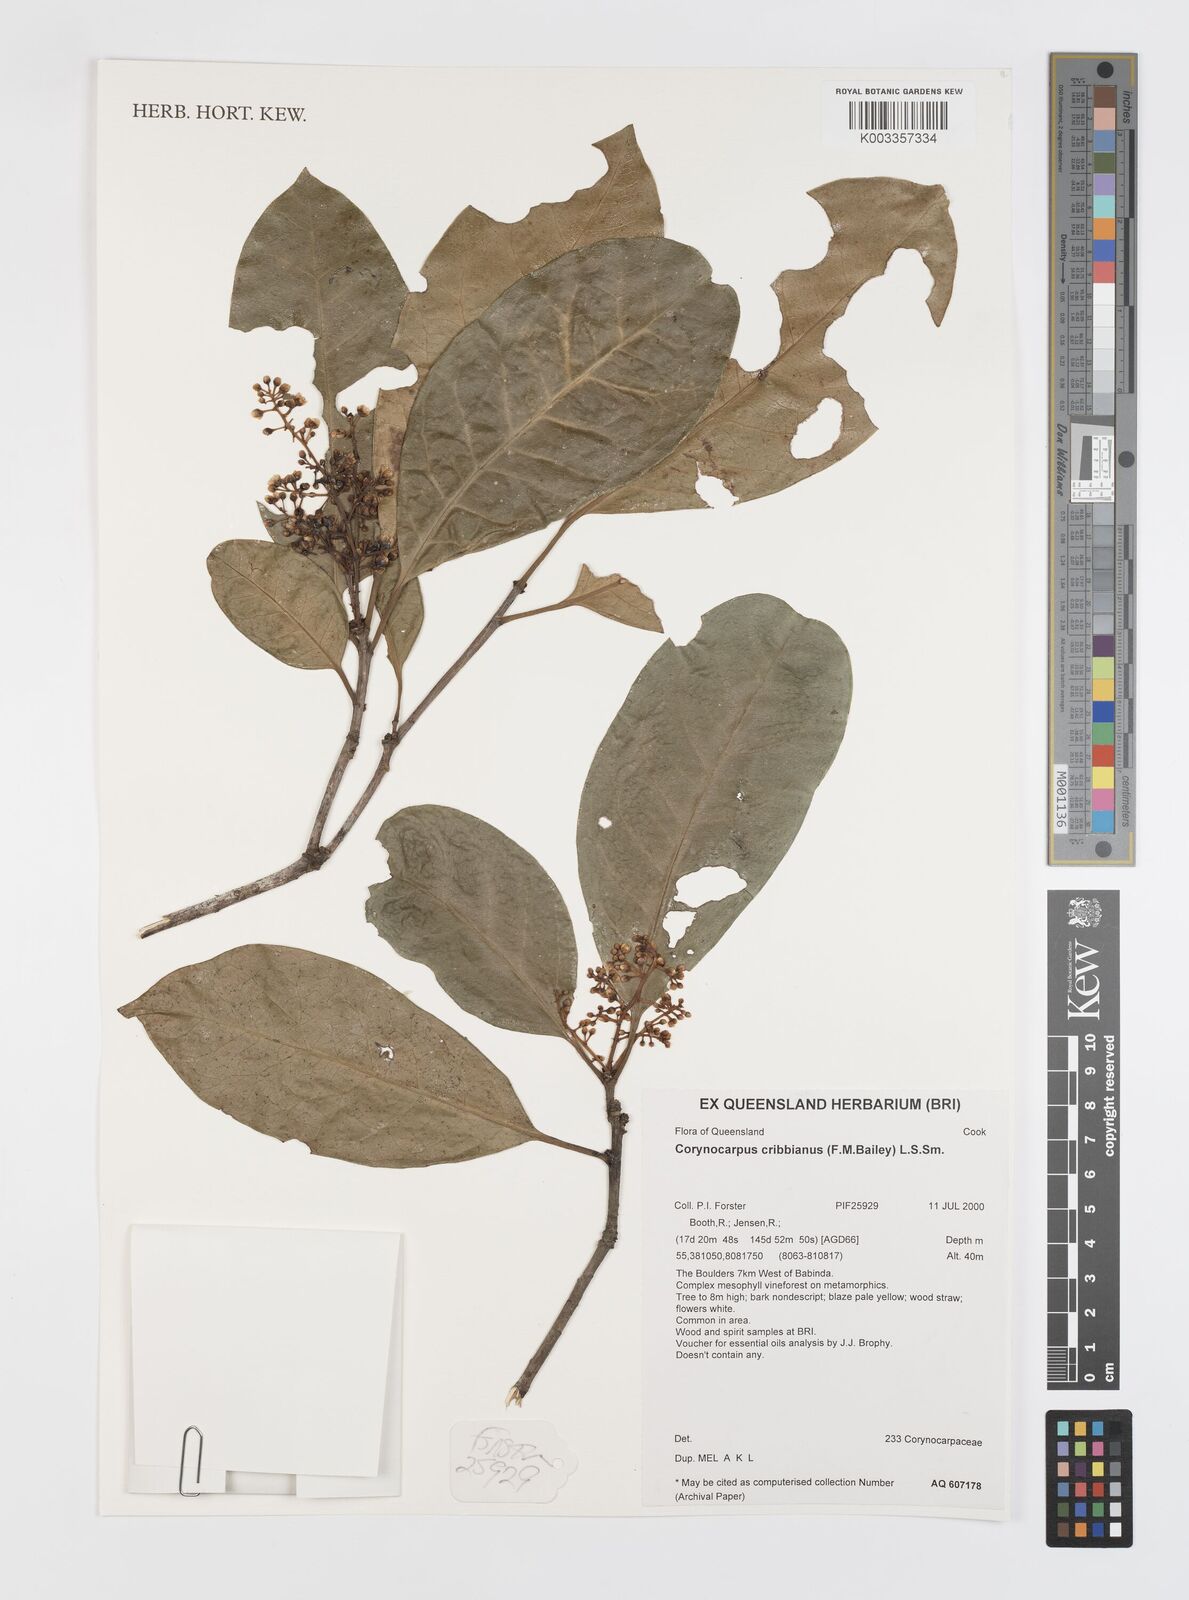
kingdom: Plantae
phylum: Tracheophyta
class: Magnoliopsida
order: Cucurbitales
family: Corynocarpaceae
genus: Corynocarpus
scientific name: Corynocarpus cribbianus
